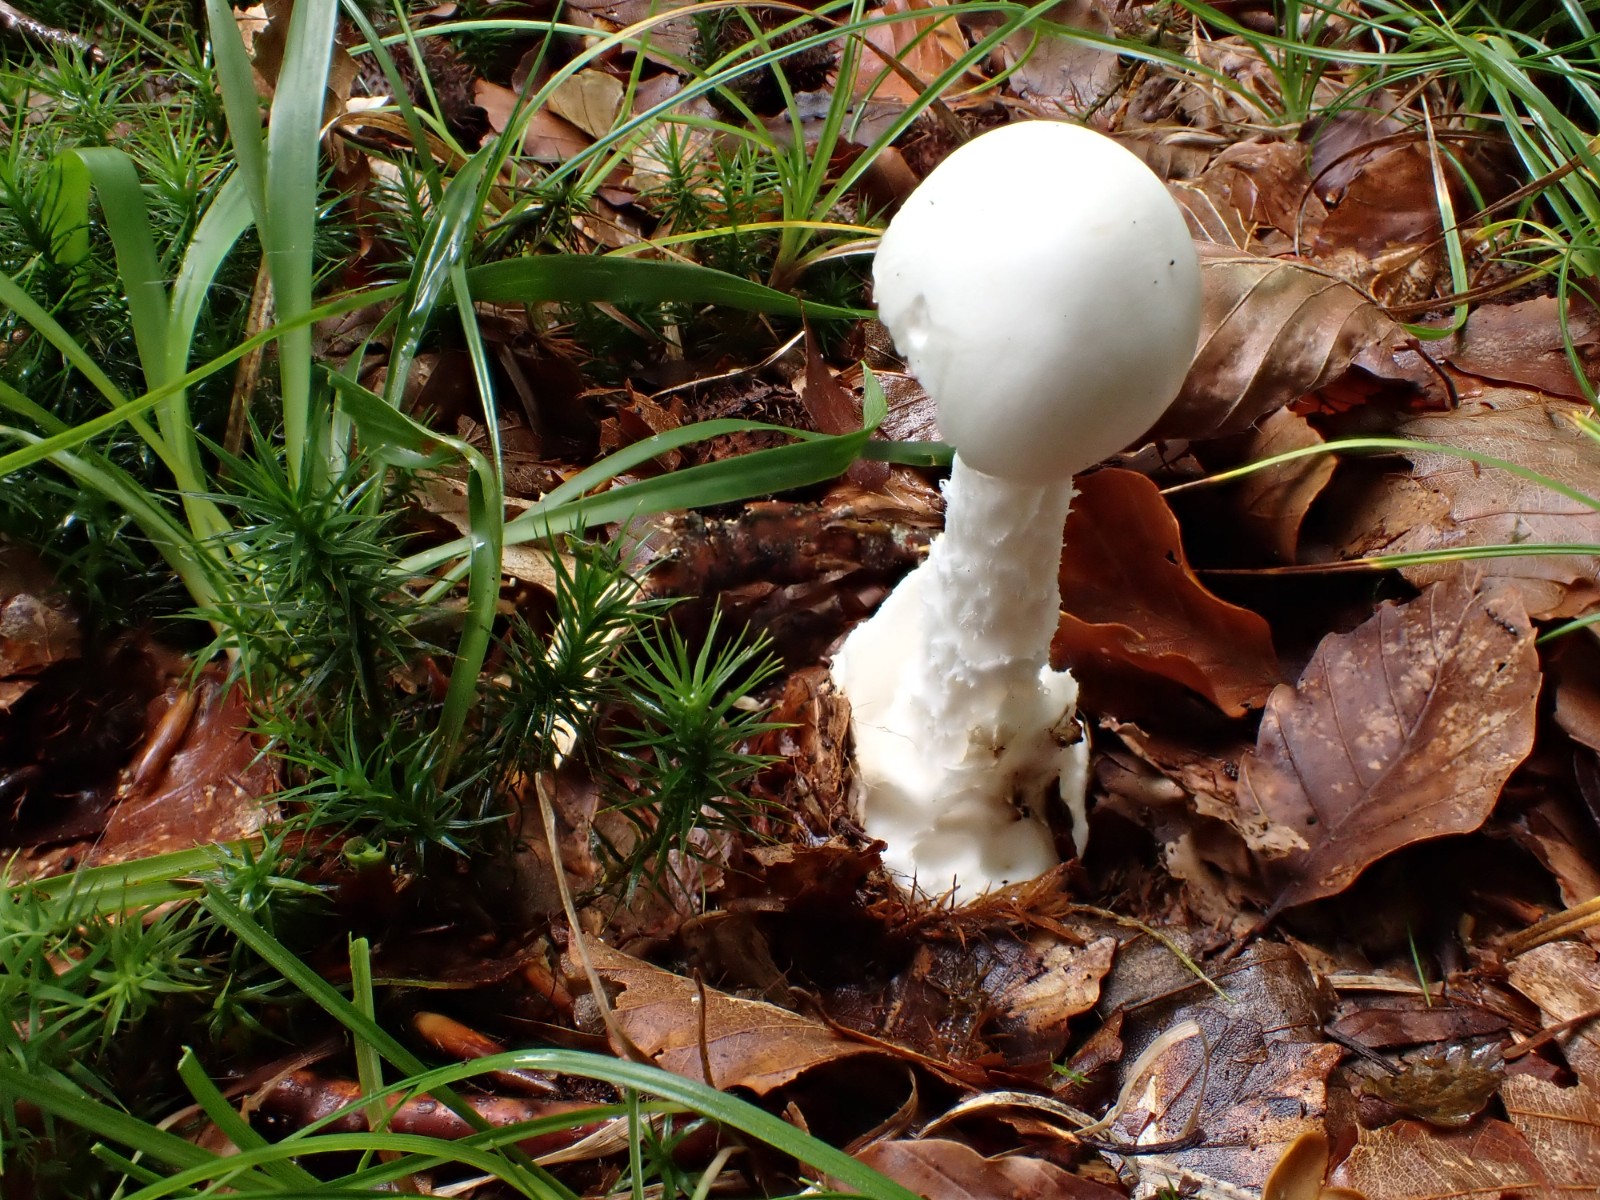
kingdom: Fungi
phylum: Basidiomycota
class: Agaricomycetes
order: Agaricales
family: Amanitaceae
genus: Amanita
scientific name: Amanita virosa
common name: snehvid fluesvamp
